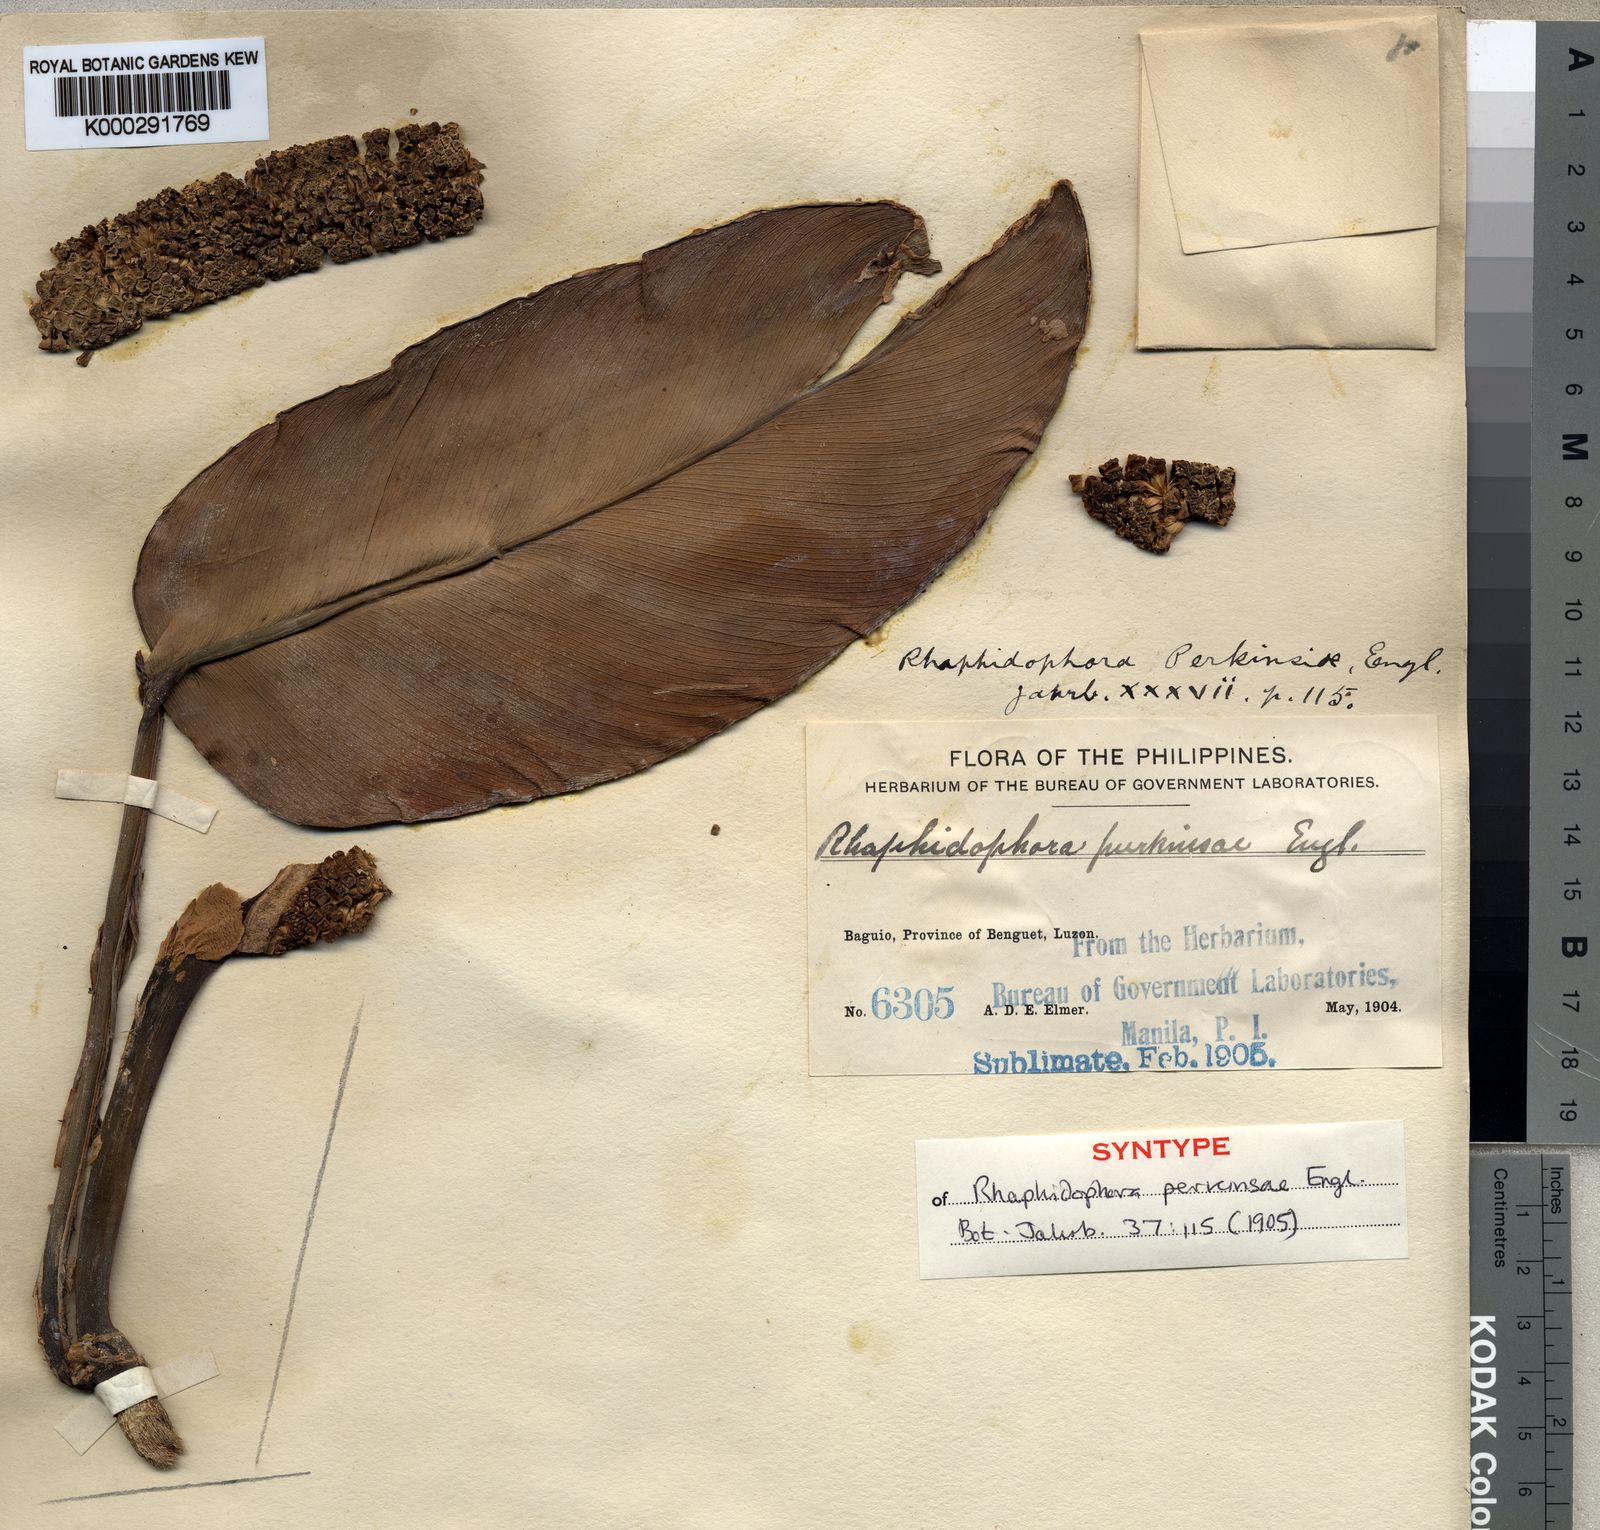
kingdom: Plantae
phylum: Tracheophyta
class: Liliopsida
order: Alismatales
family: Araceae
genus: Rhaphidophora
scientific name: Rhaphidophora perkinsiae
